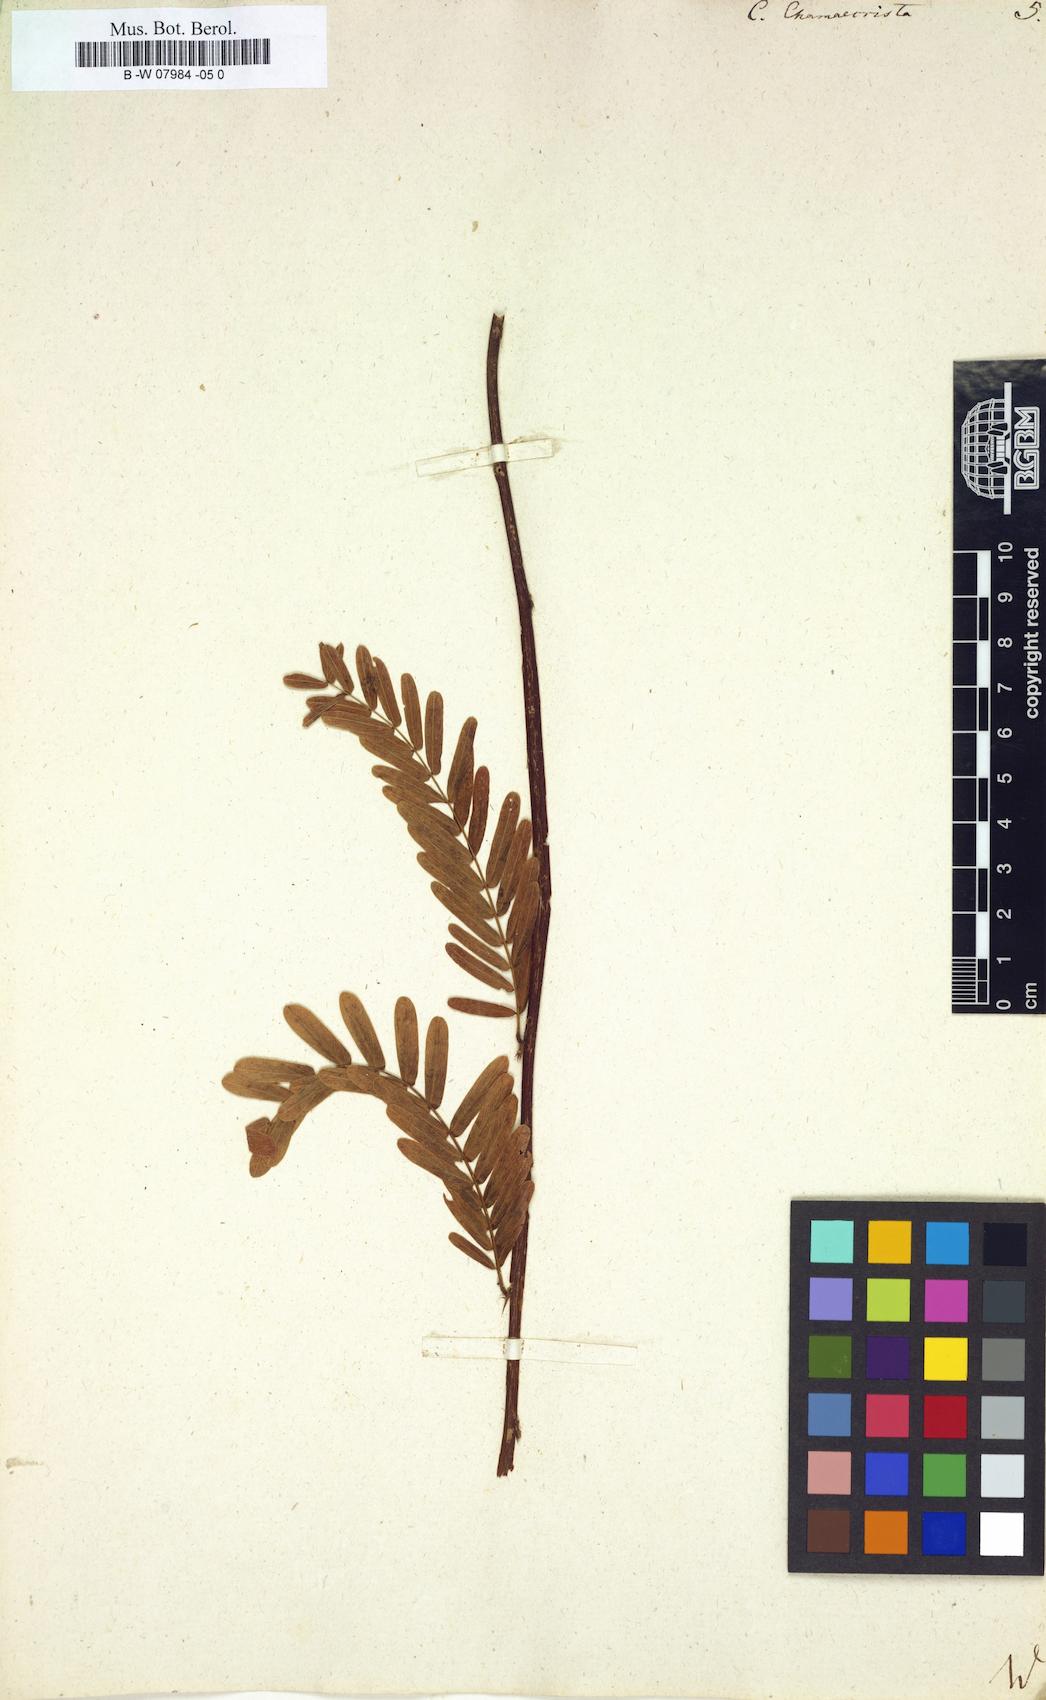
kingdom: Plantae
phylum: Tracheophyta
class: Magnoliopsida
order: Fabales
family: Fabaceae
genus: Chamaecrista
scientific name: Chamaecrista
